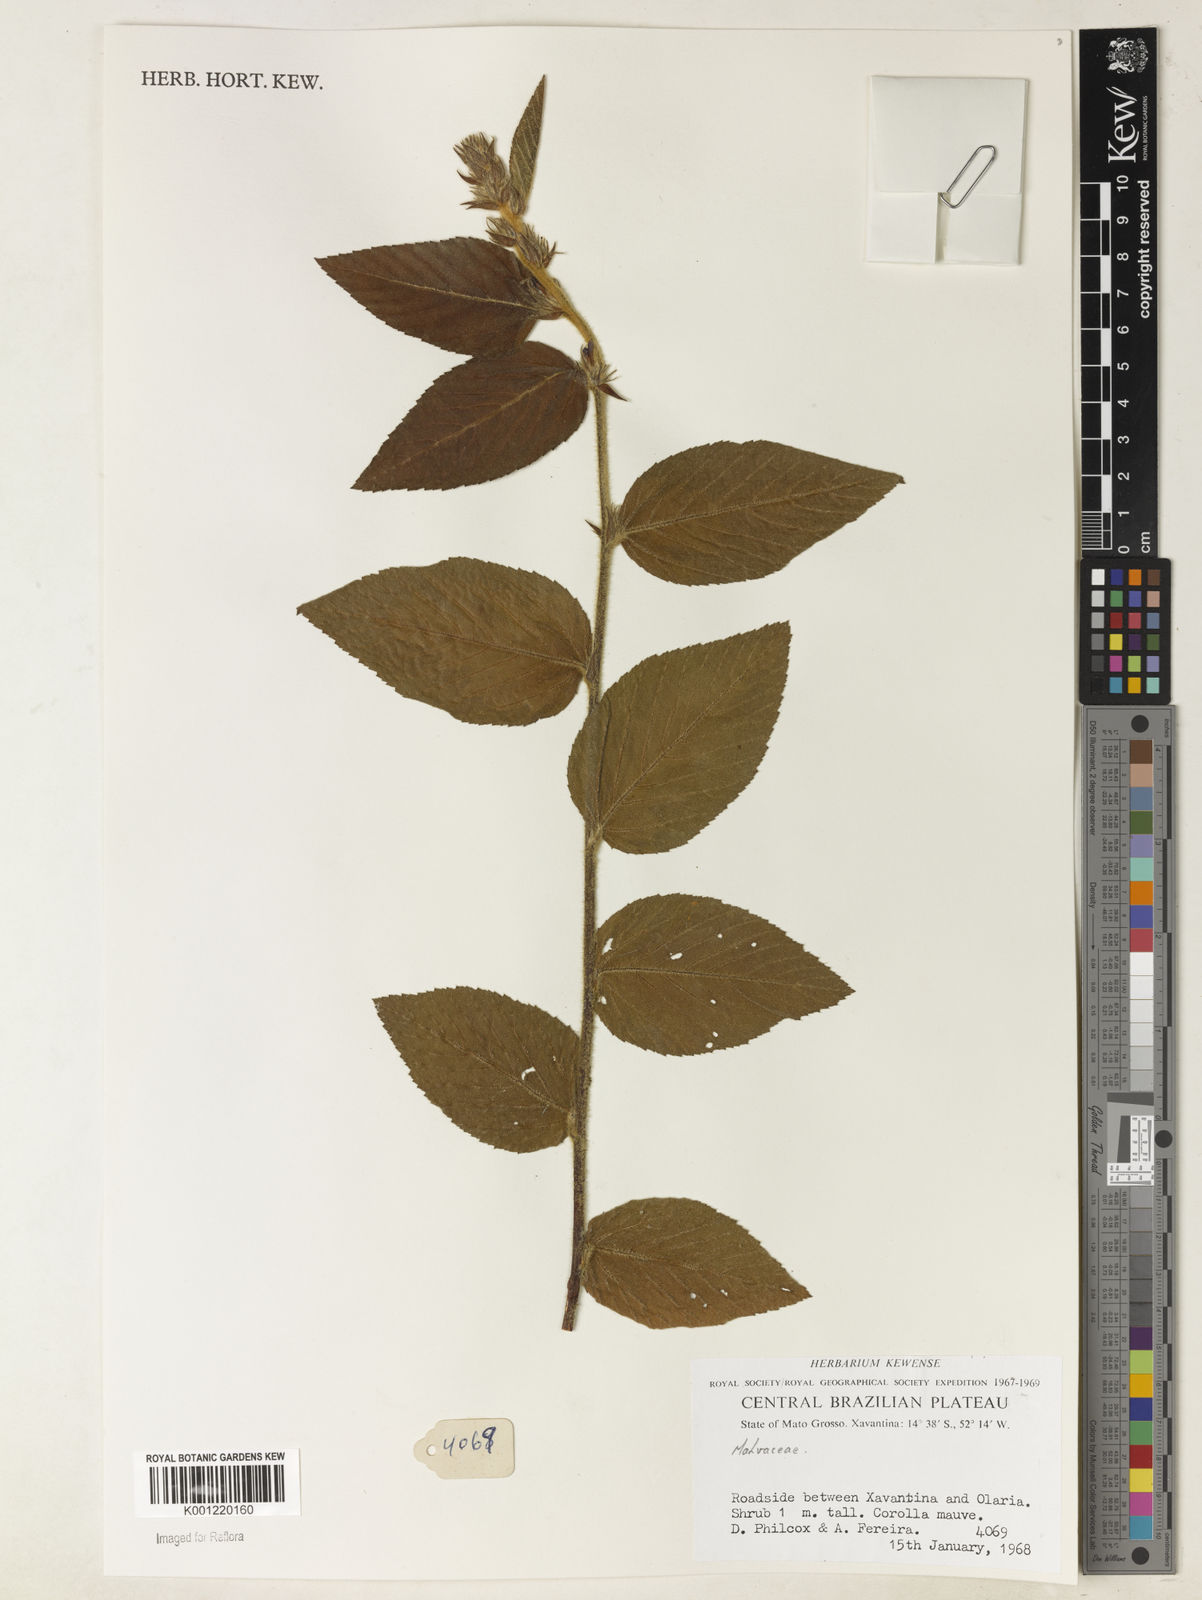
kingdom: Plantae
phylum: Tracheophyta
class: Magnoliopsida
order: Malvales
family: Malvaceae
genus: Melochia
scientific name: Melochia
